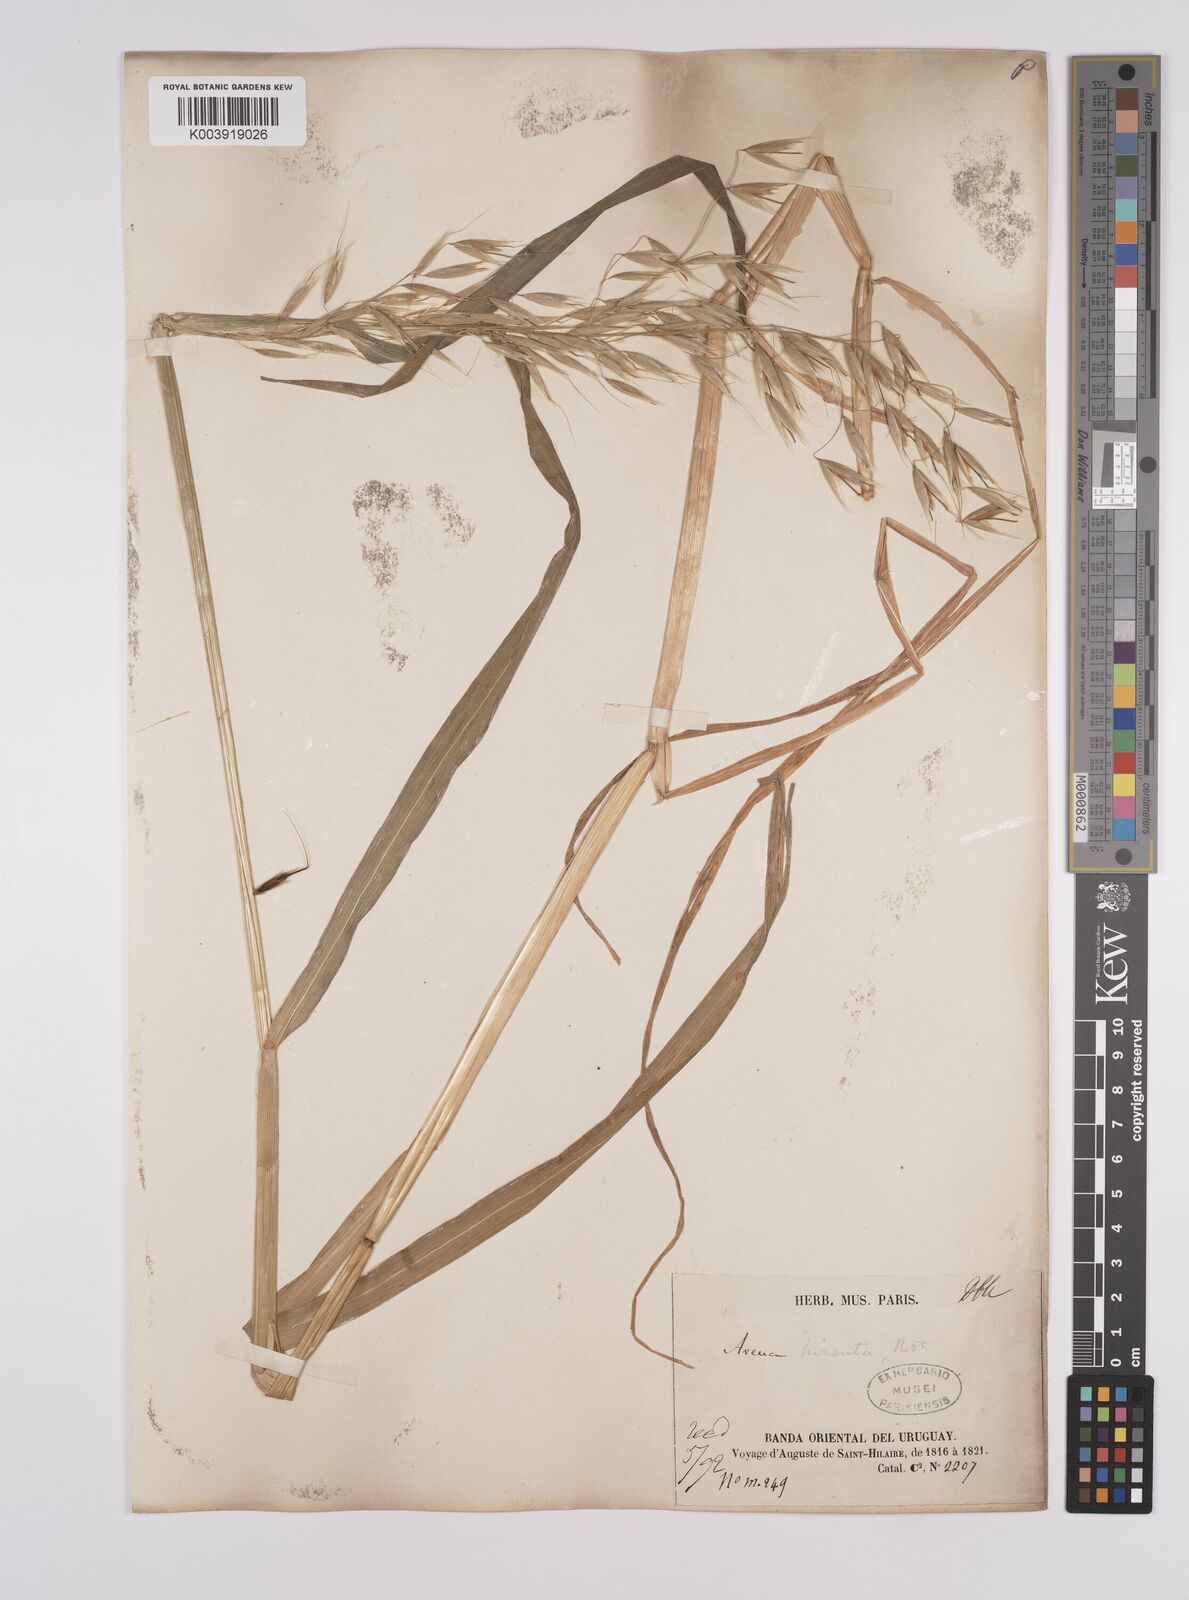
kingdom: Plantae
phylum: Tracheophyta
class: Liliopsida
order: Poales
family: Poaceae
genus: Avena
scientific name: Avena fatua
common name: Wild oat
